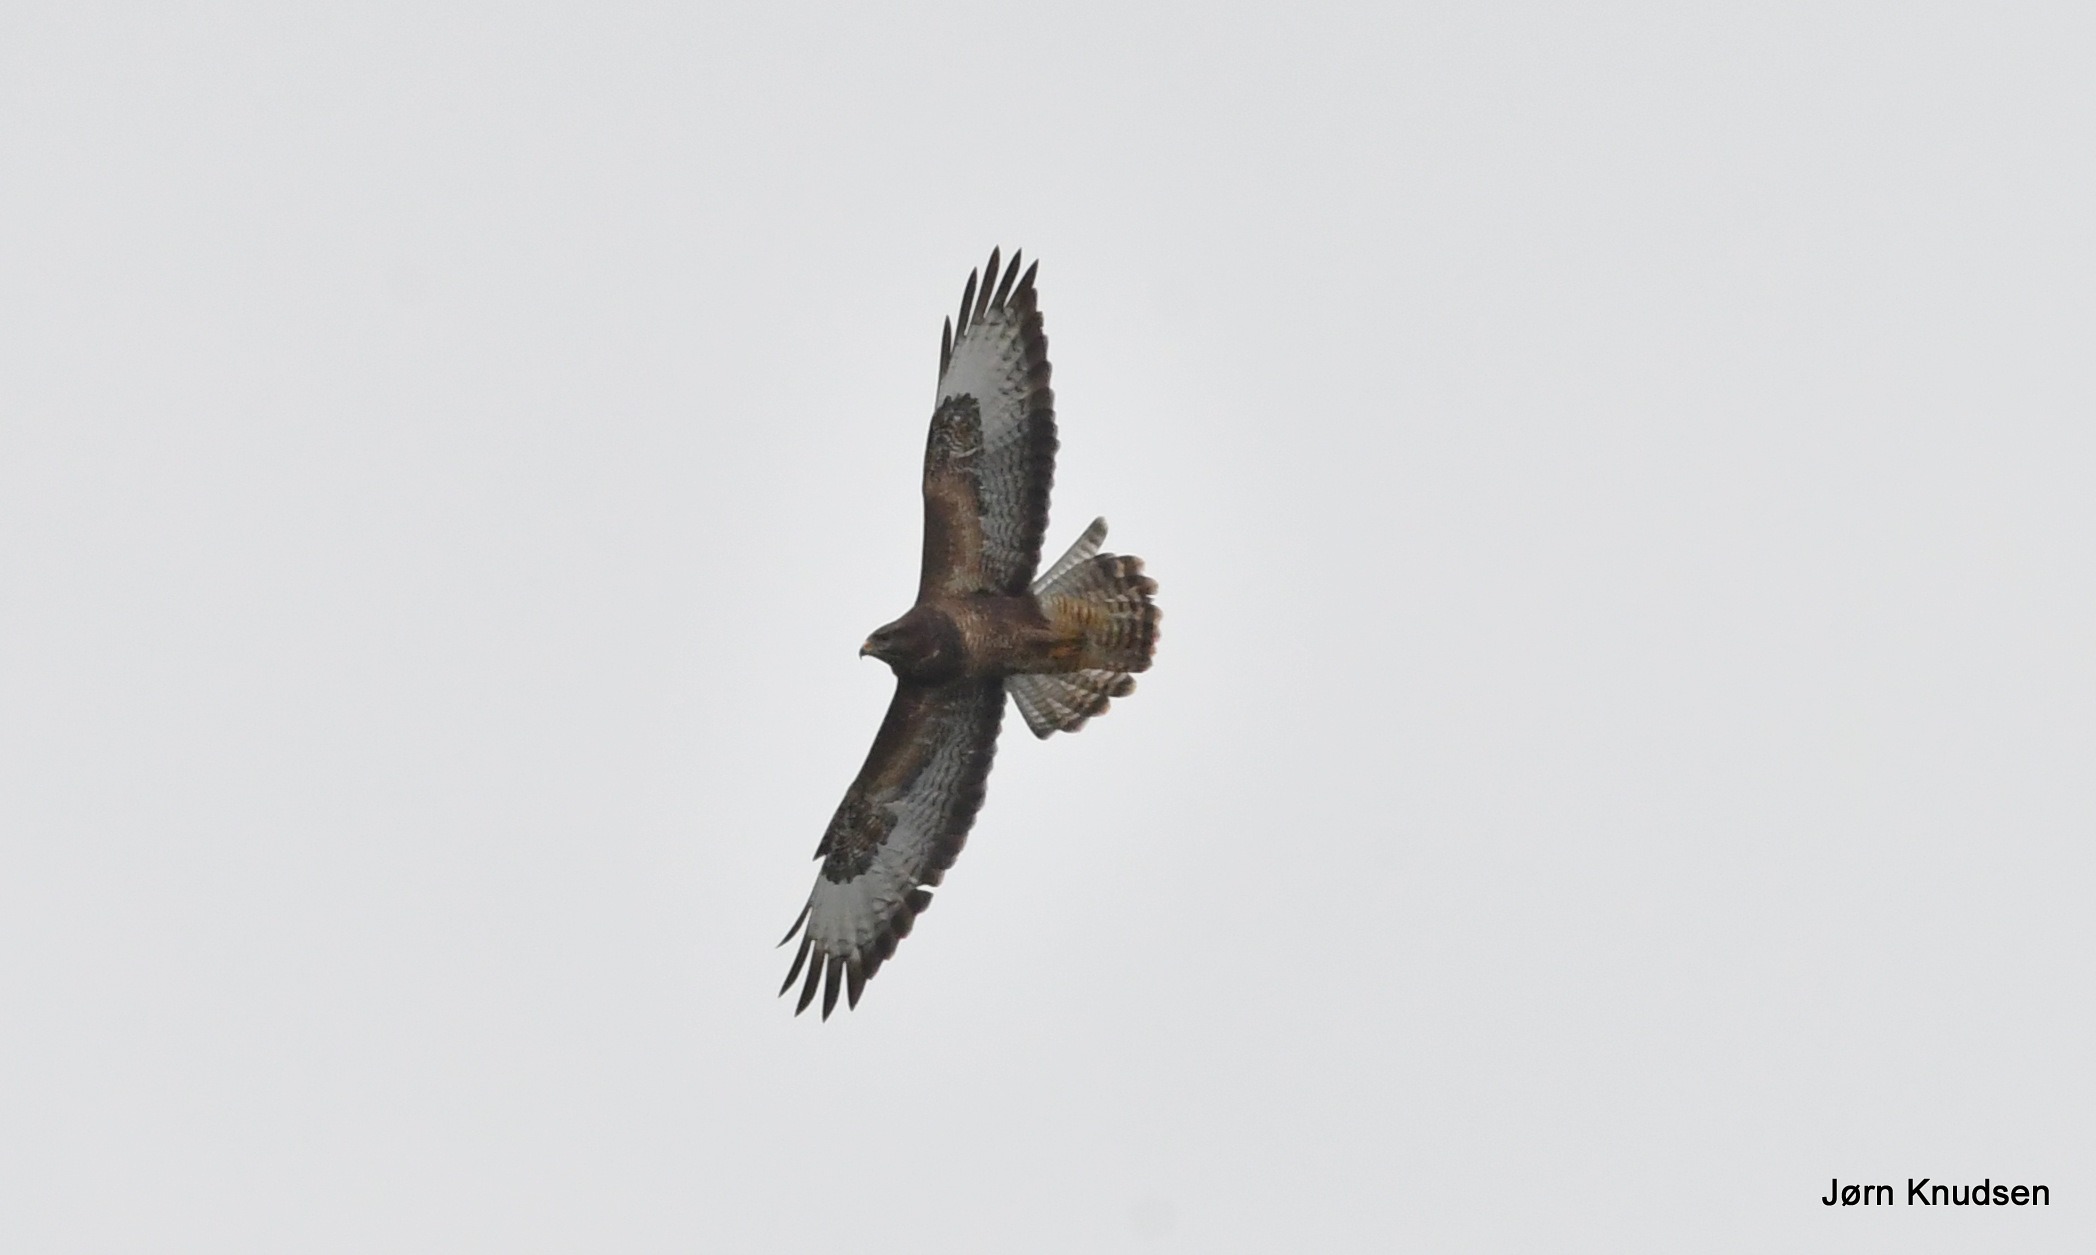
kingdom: Animalia
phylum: Chordata
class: Aves
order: Accipitriformes
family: Accipitridae
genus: Buteo
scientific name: Buteo buteo
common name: Musvåge
